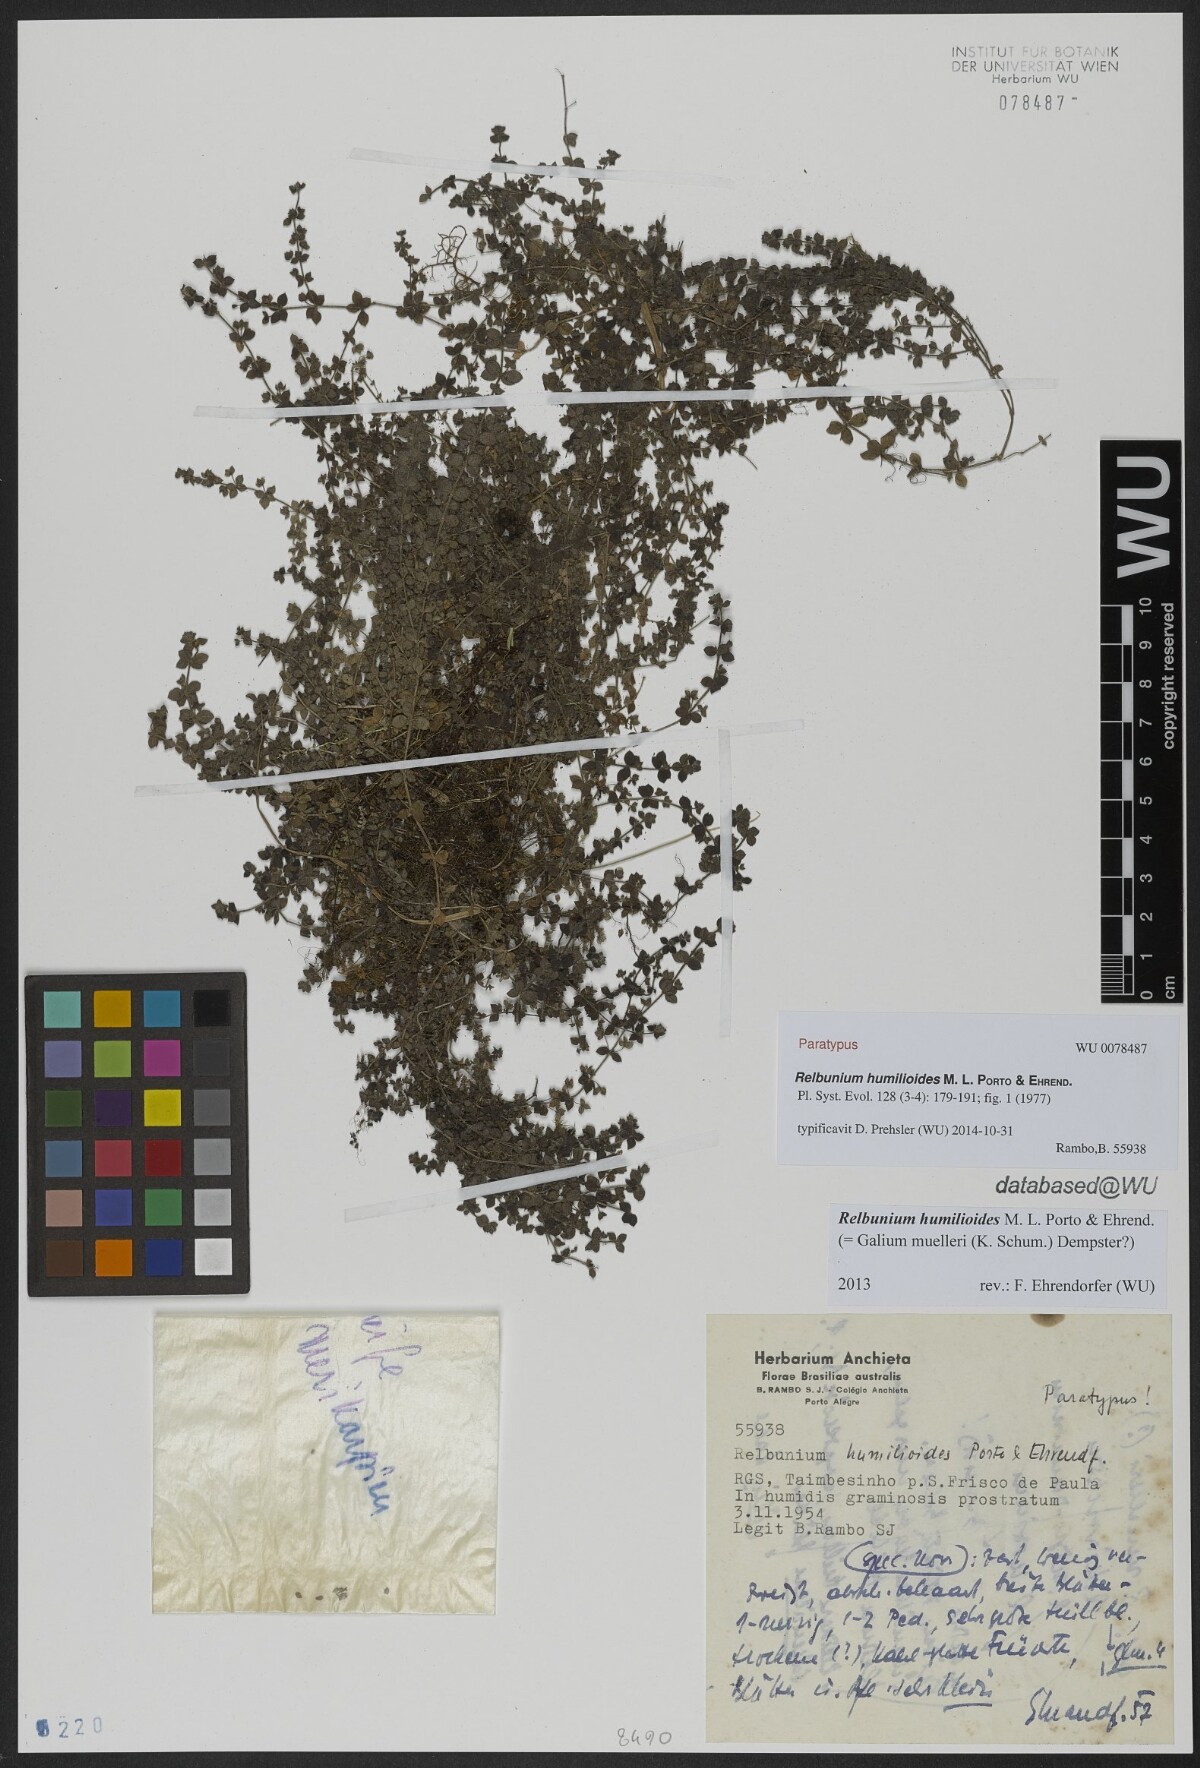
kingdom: Plantae
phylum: Tracheophyta
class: Magnoliopsida
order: Gentianales
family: Rubiaceae
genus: Galium
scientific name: Galium humilioides
